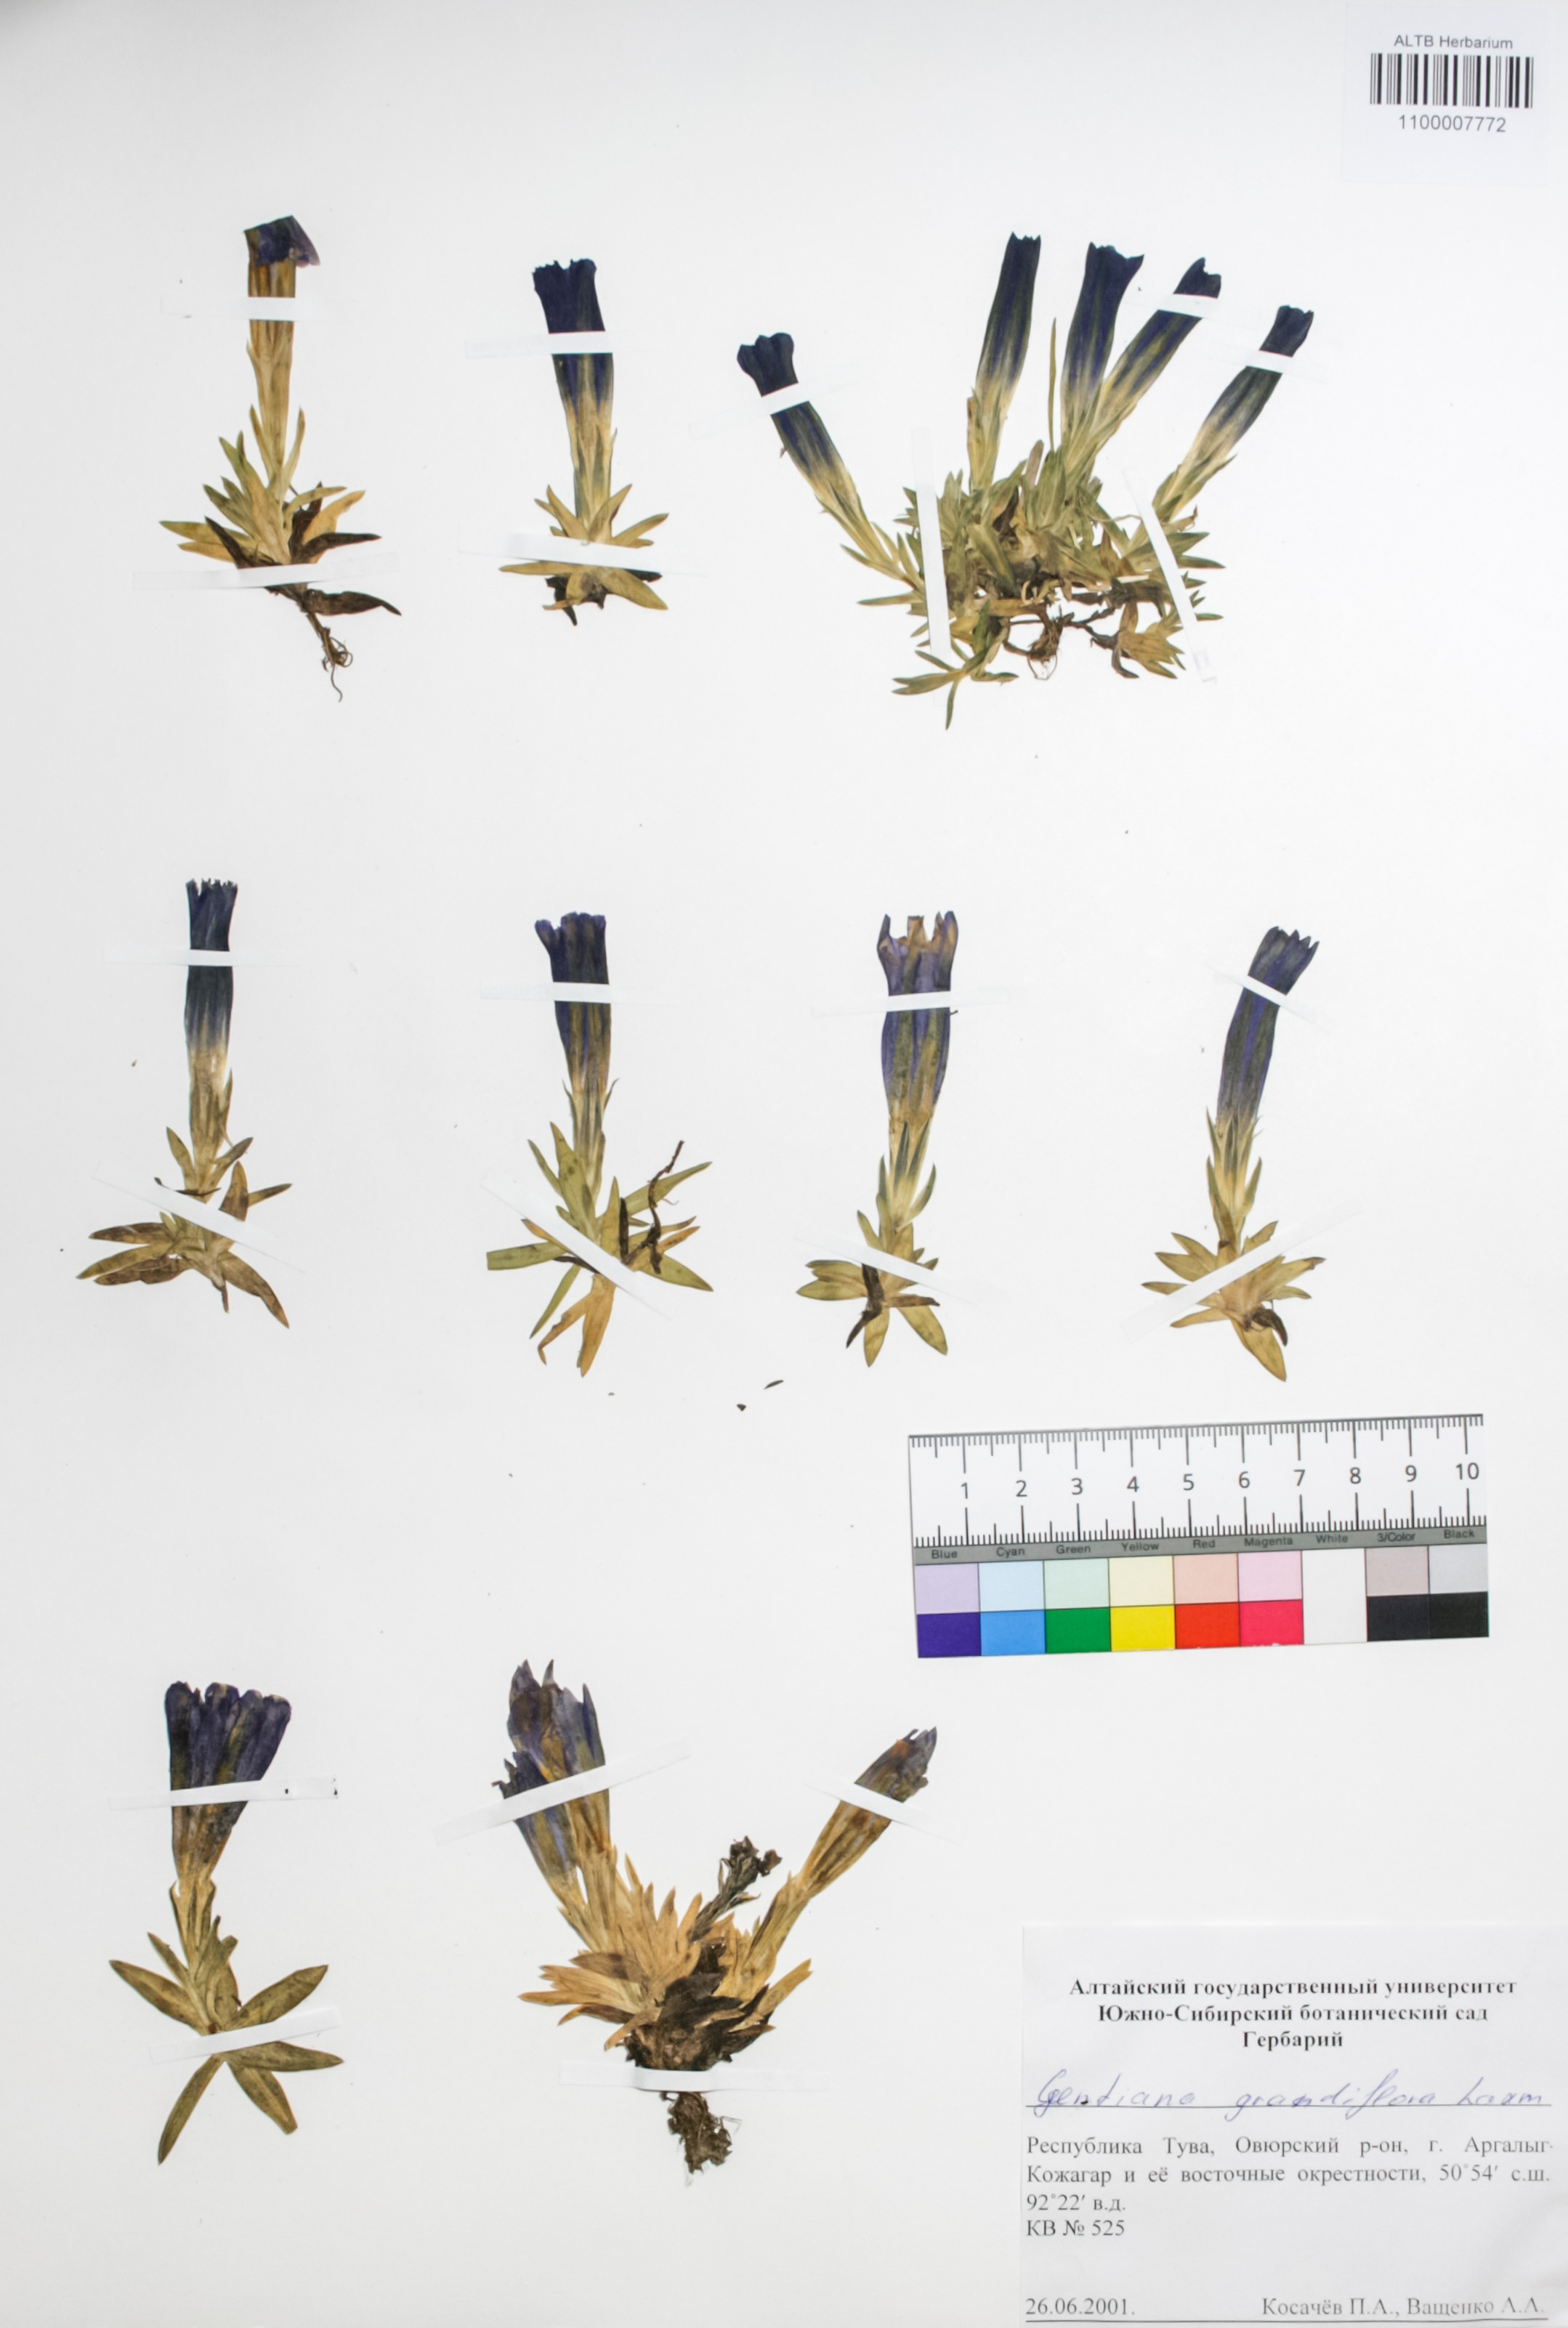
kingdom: Plantae
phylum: Tracheophyta
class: Magnoliopsida
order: Gentianales
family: Gentianaceae
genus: Gentiana
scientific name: Gentiana grandiflora
